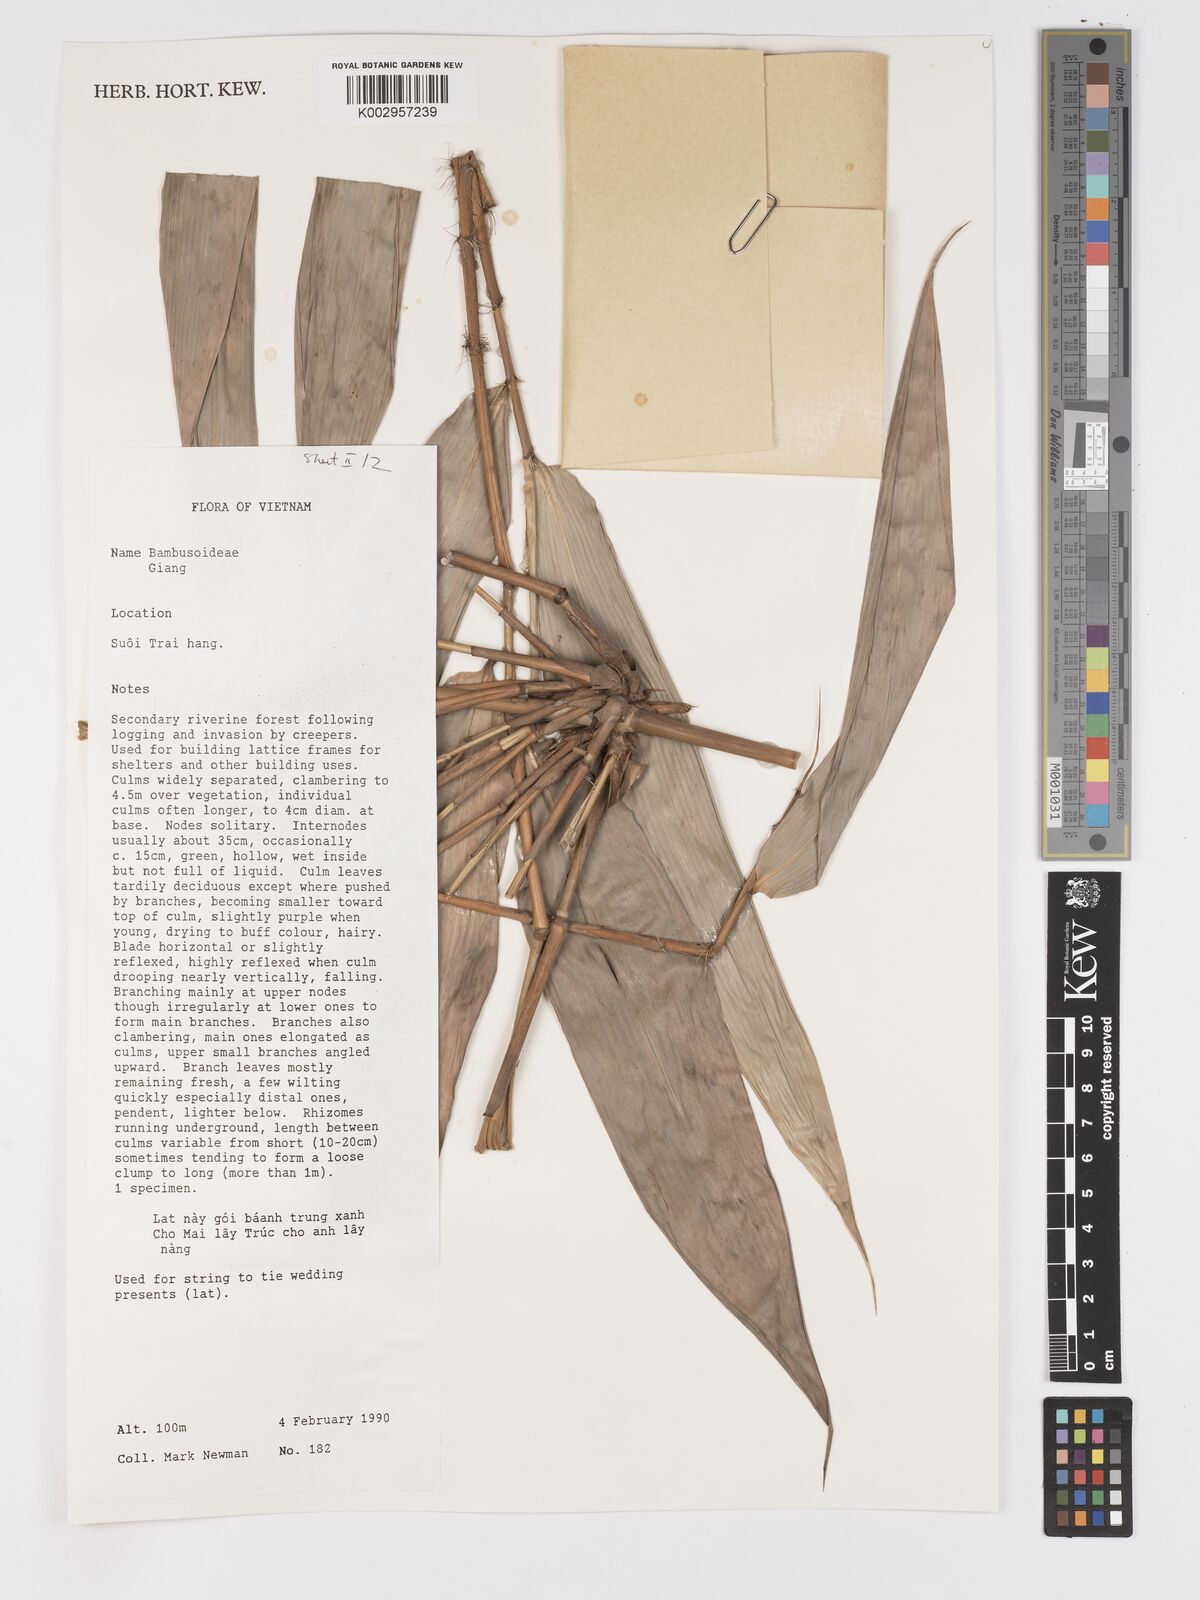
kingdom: Plantae
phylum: Tracheophyta
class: Liliopsida
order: Poales
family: Poaceae
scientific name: Poaceae
